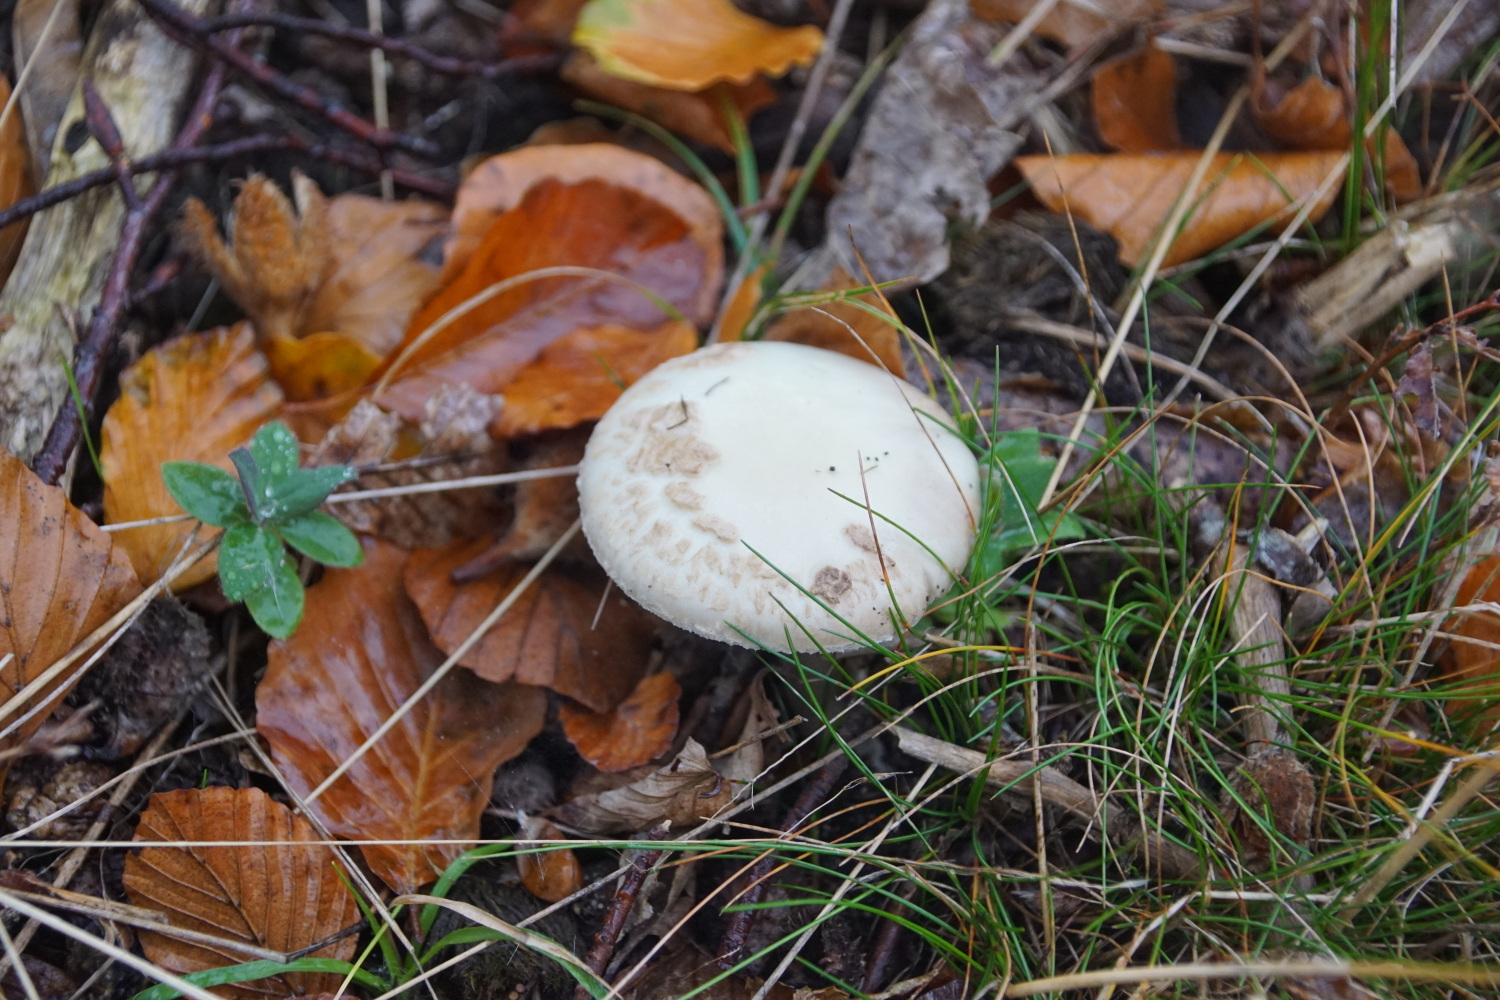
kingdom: Fungi
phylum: Basidiomycota
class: Agaricomycetes
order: Agaricales
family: Amanitaceae
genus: Amanita
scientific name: Amanita citrina
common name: False death-cap
